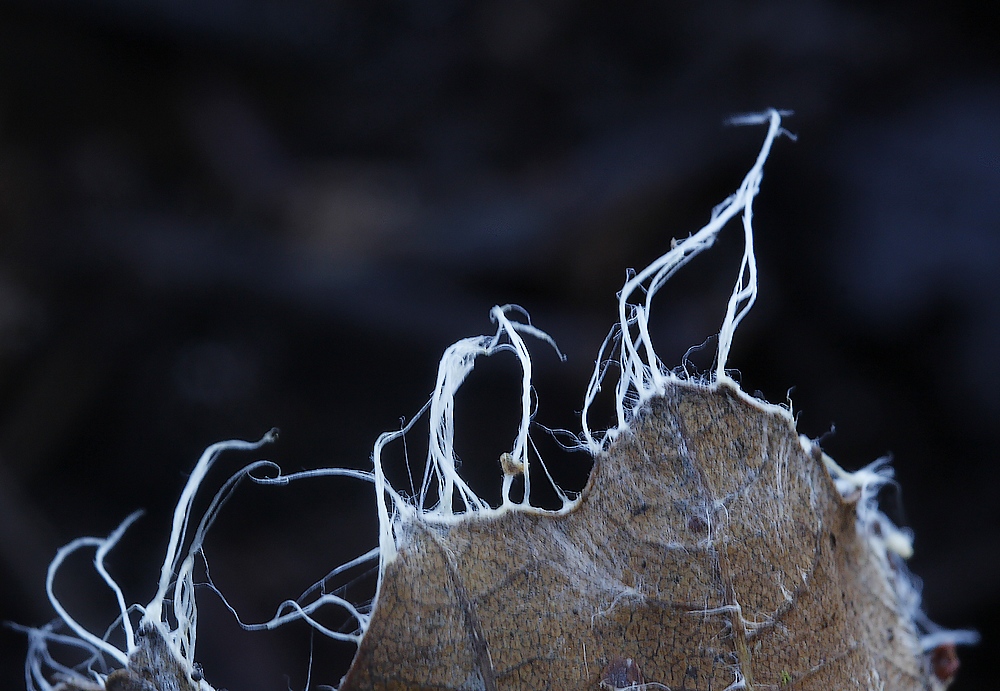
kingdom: Fungi
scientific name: Fungi
